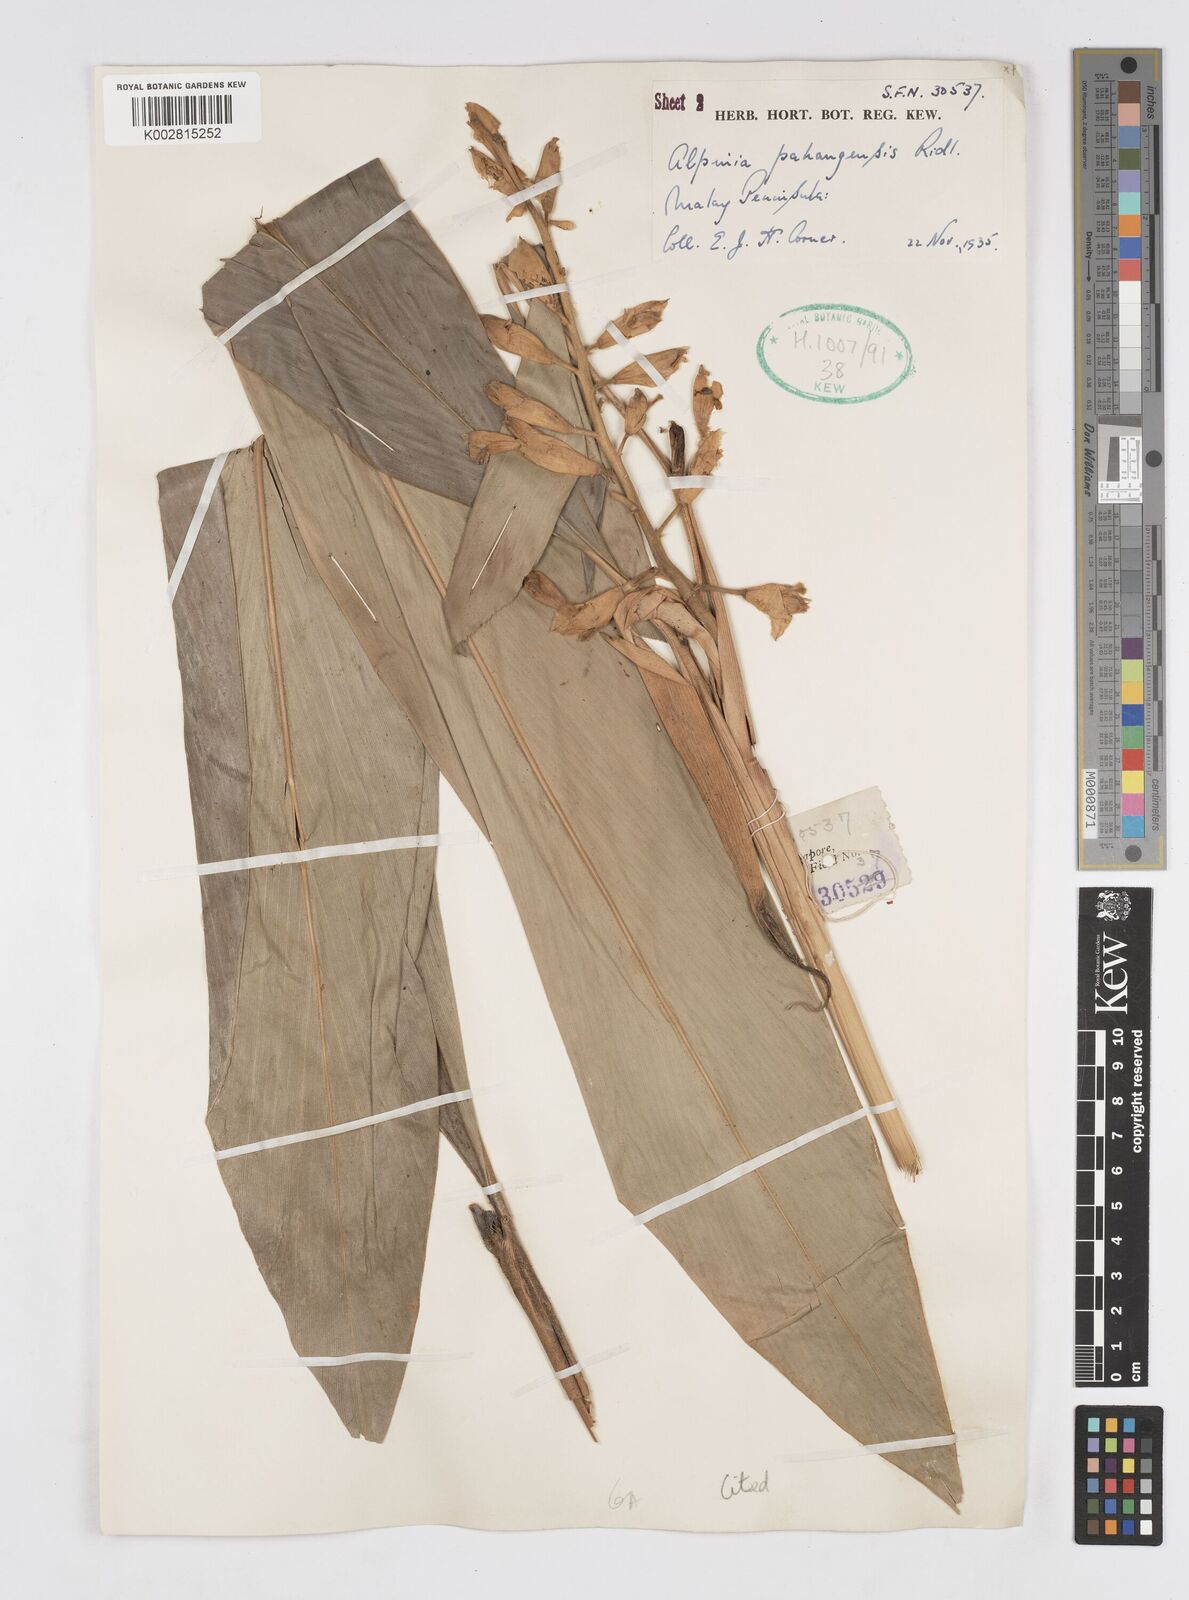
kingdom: Plantae
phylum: Tracheophyta
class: Liliopsida
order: Zingiberales
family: Zingiberaceae
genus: Alpinia
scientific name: Alpinia pahangensis
